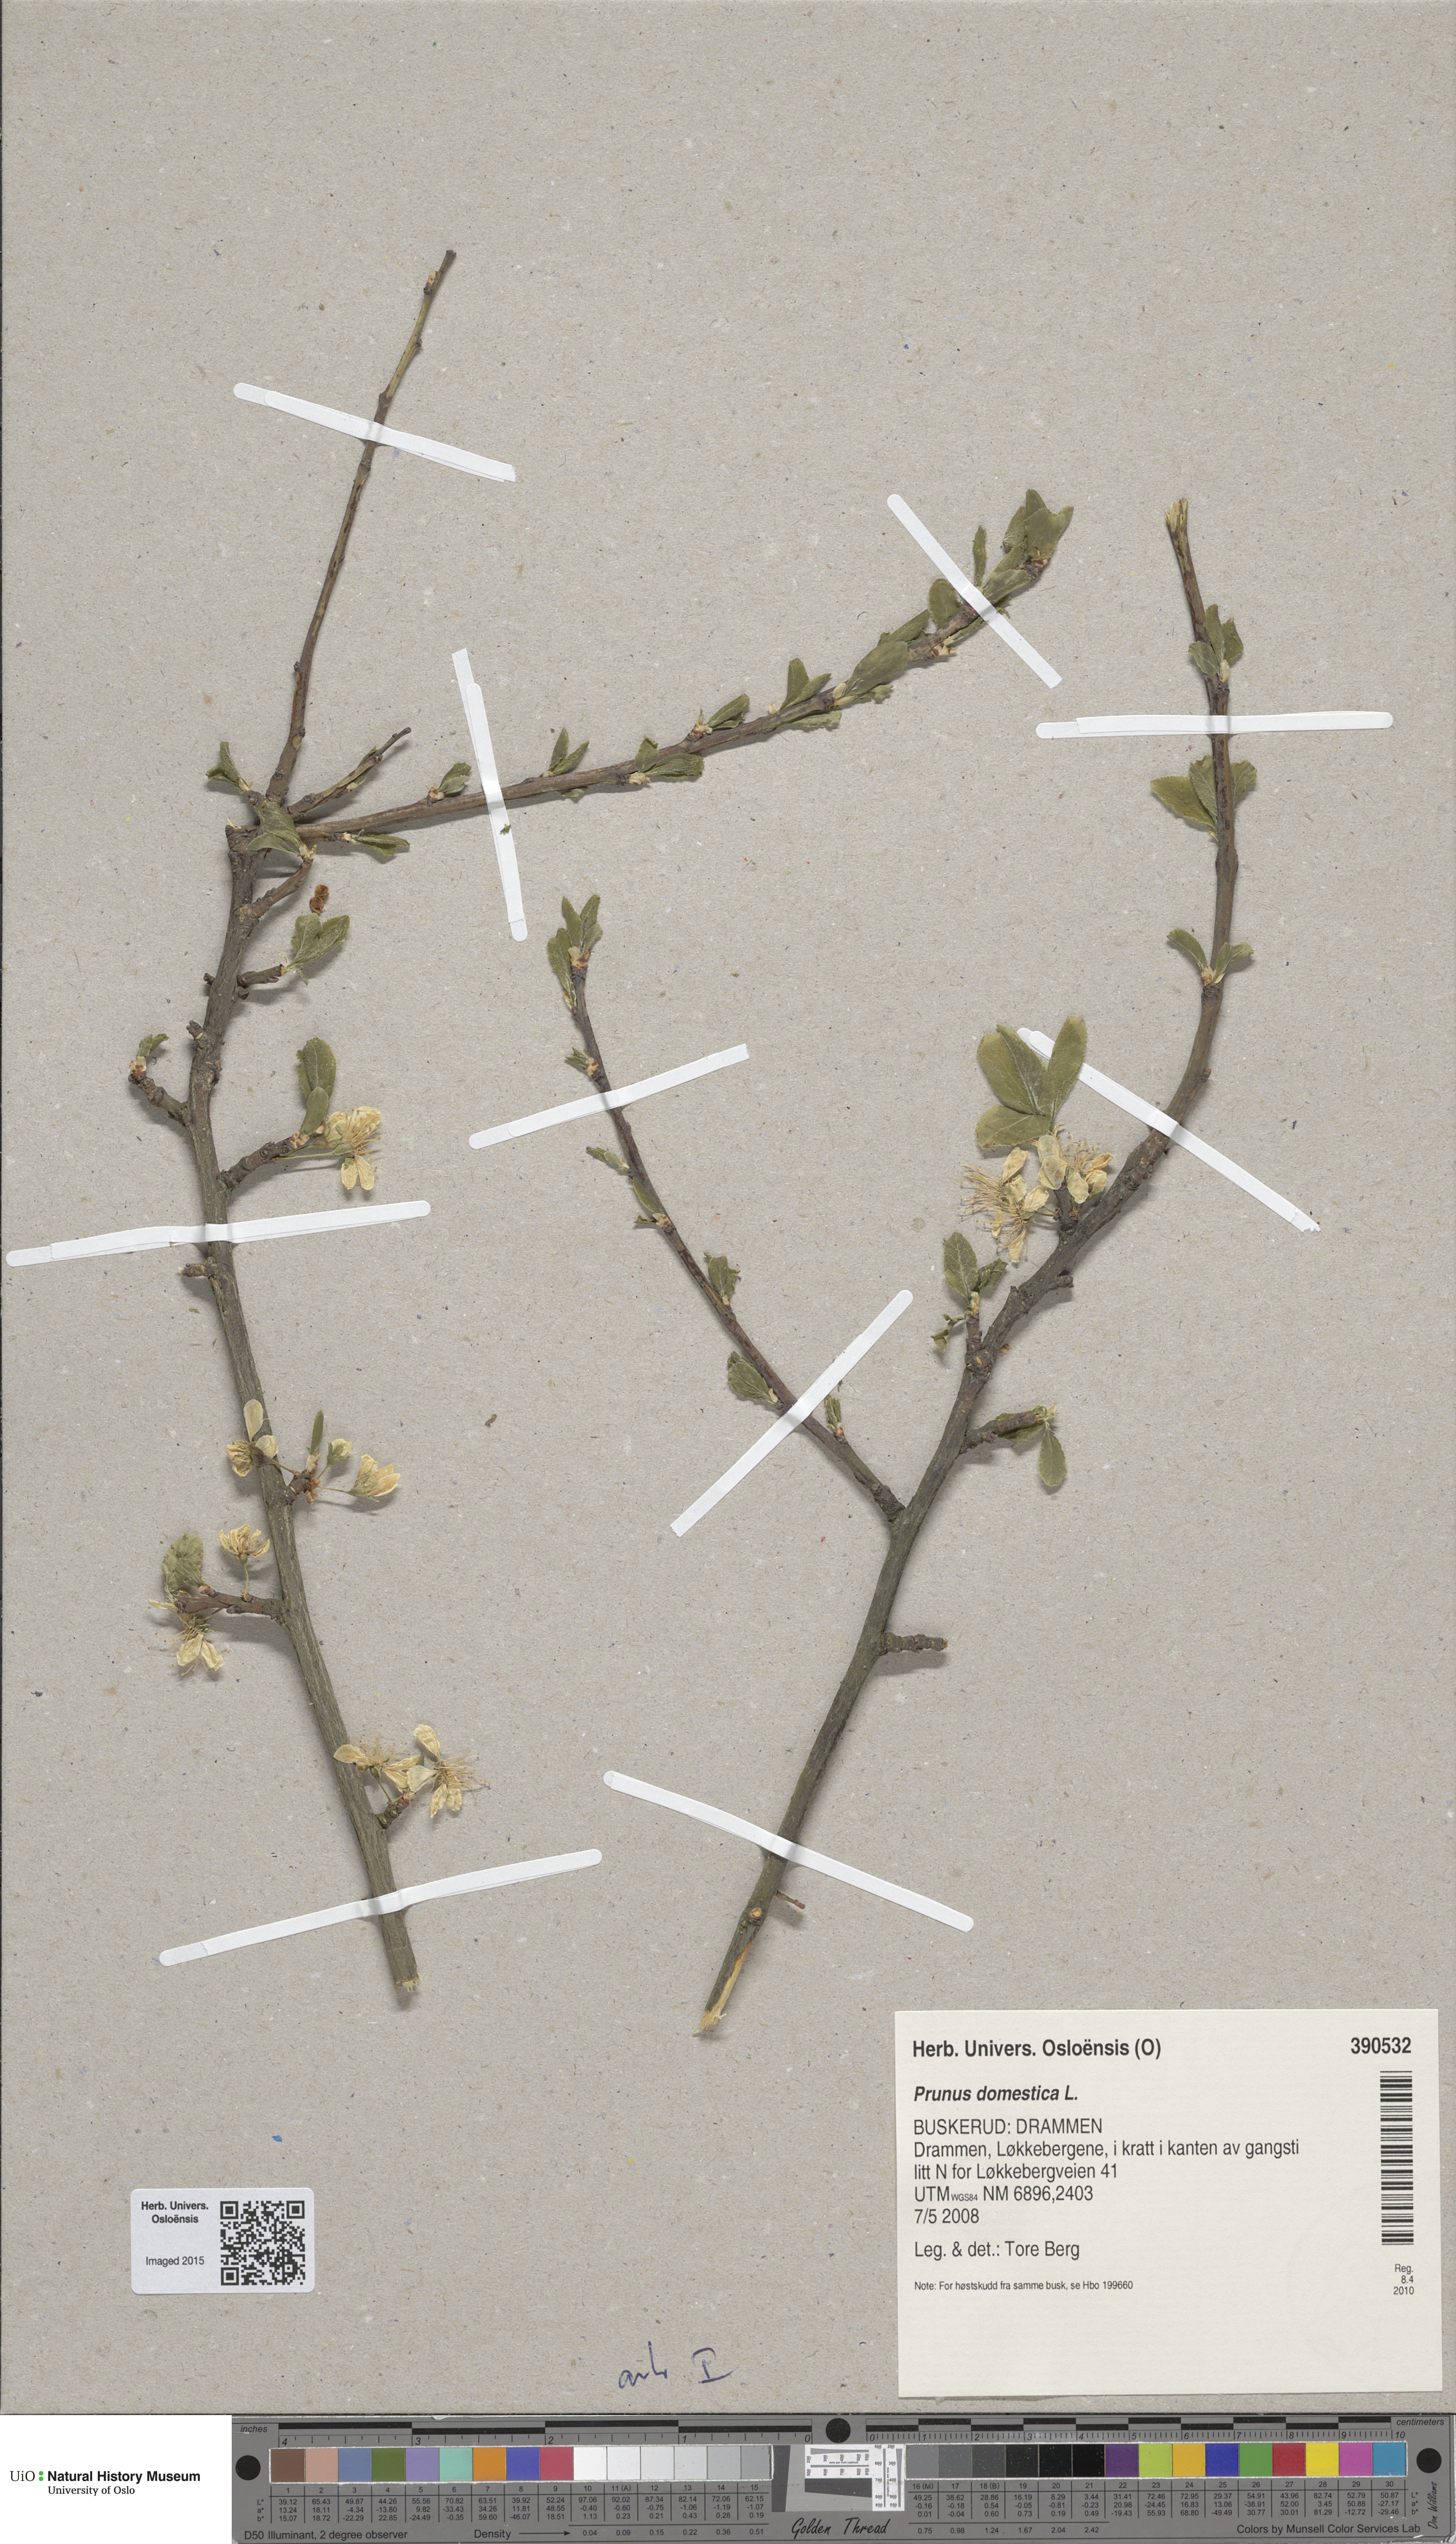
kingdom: Plantae
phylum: Tracheophyta
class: Magnoliopsida
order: Rosales
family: Rosaceae
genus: Prunus
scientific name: Prunus domestica
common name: Wild plum
